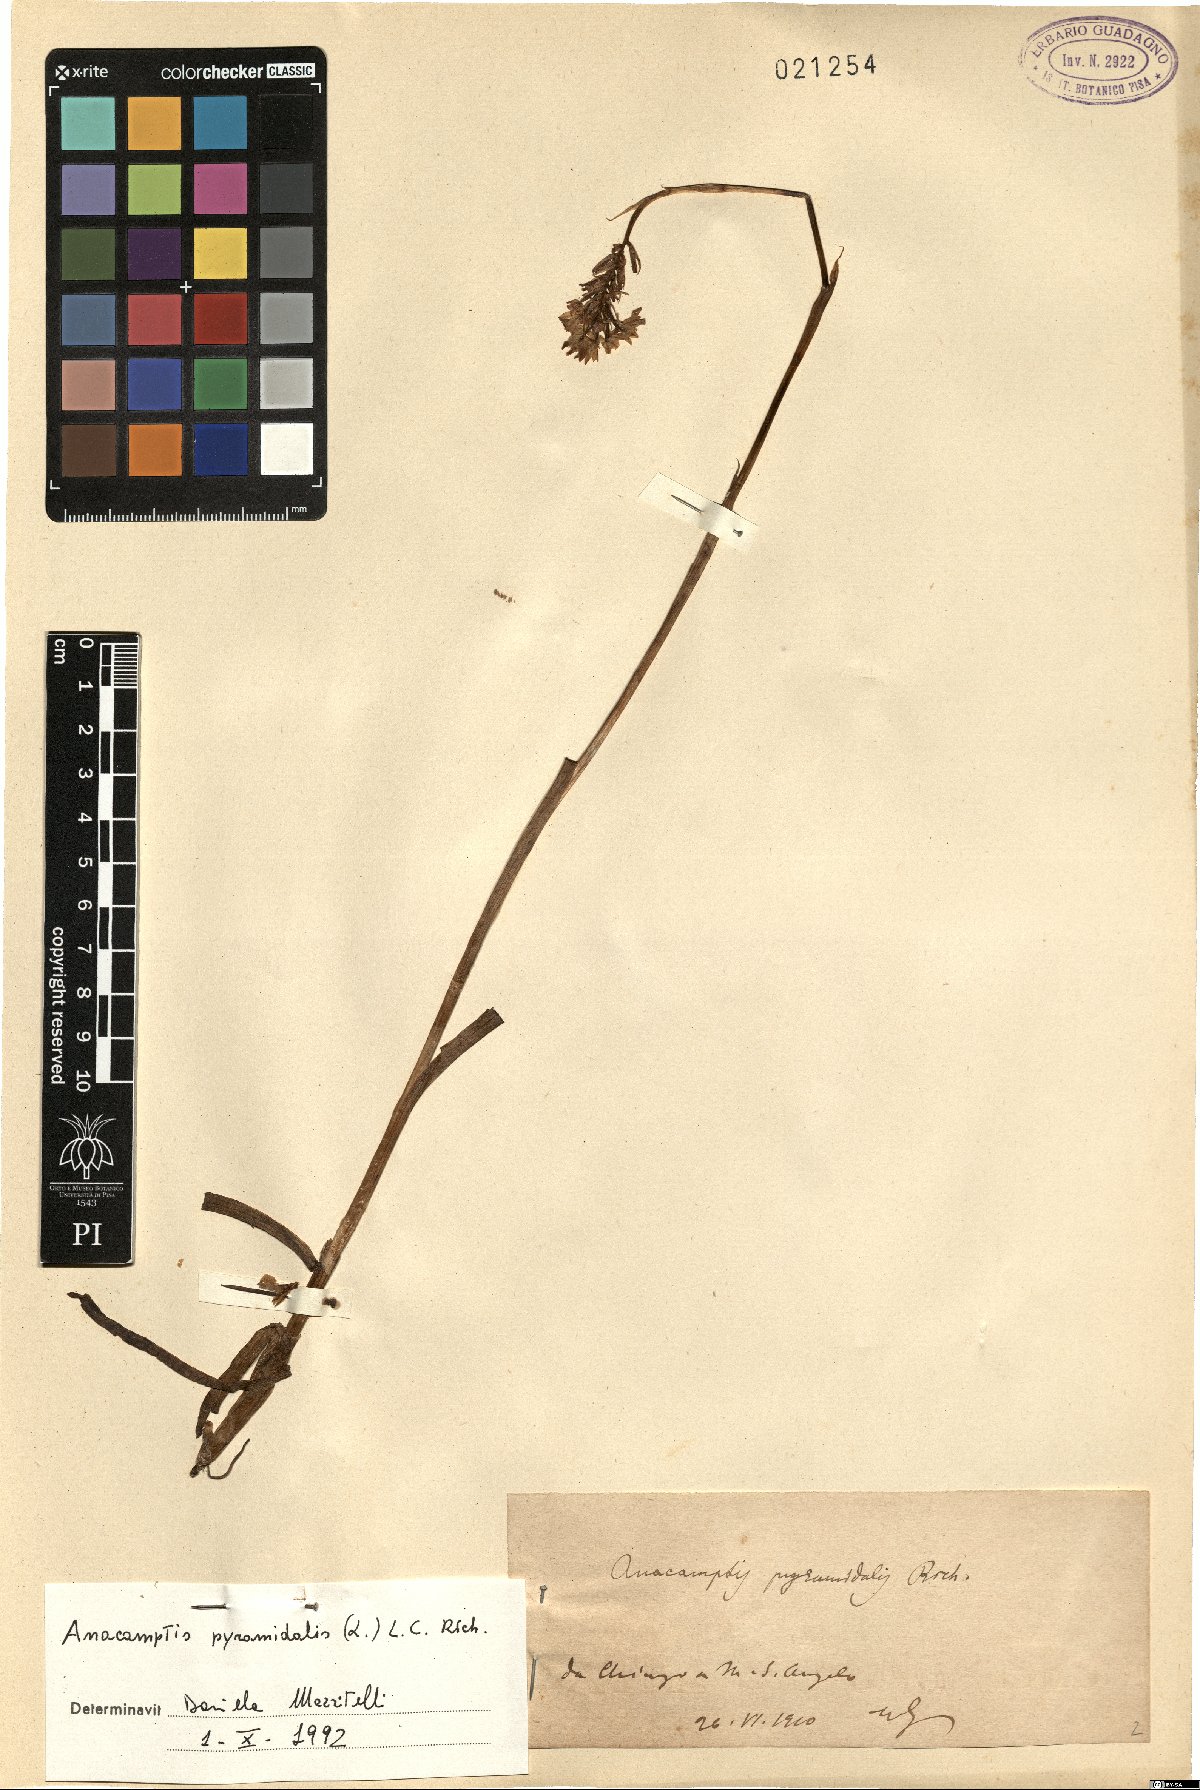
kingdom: Plantae
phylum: Tracheophyta
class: Liliopsida
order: Asparagales
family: Orchidaceae
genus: Anacamptis
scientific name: Anacamptis pyramidalis
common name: Pyramidal orchid
